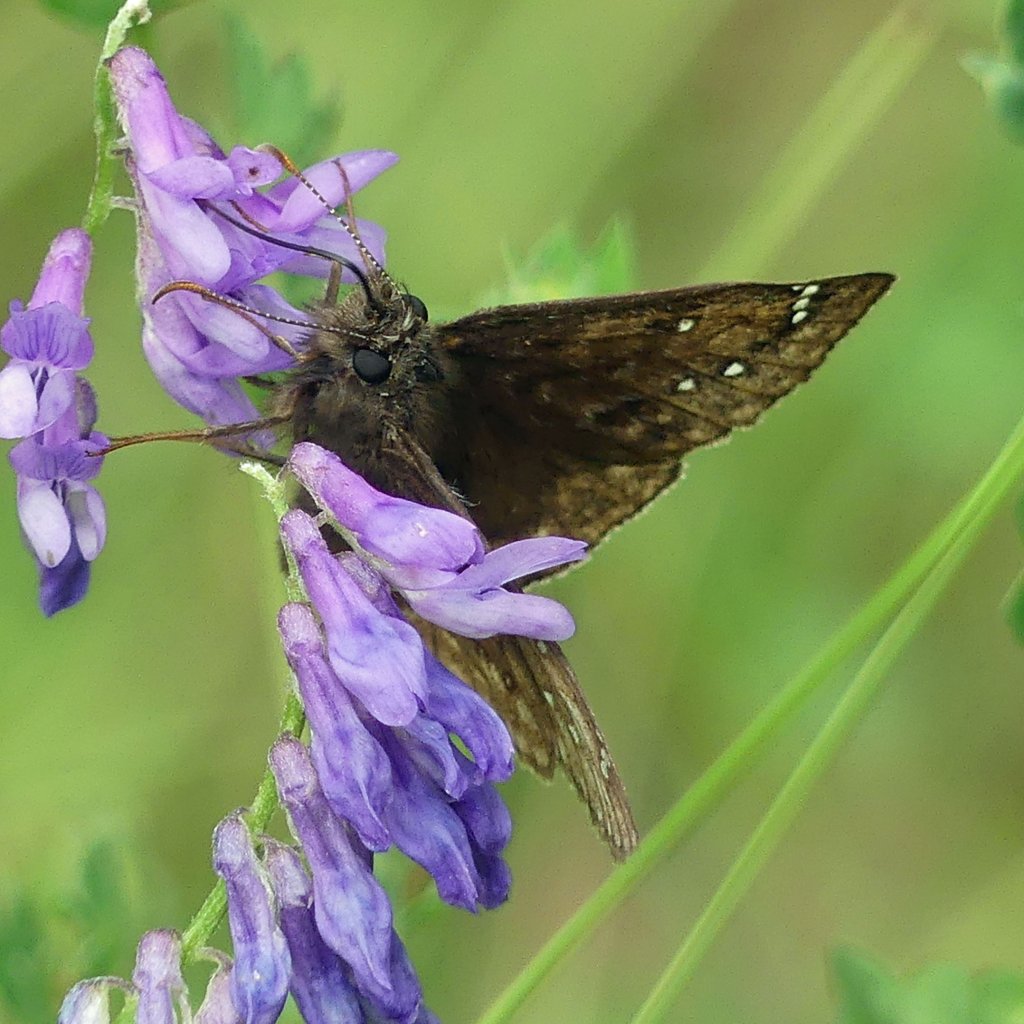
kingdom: Animalia
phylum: Arthropoda
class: Insecta
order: Lepidoptera
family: Hesperiidae
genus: Gesta
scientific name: Gesta
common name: Wild Indigo Duskywing
